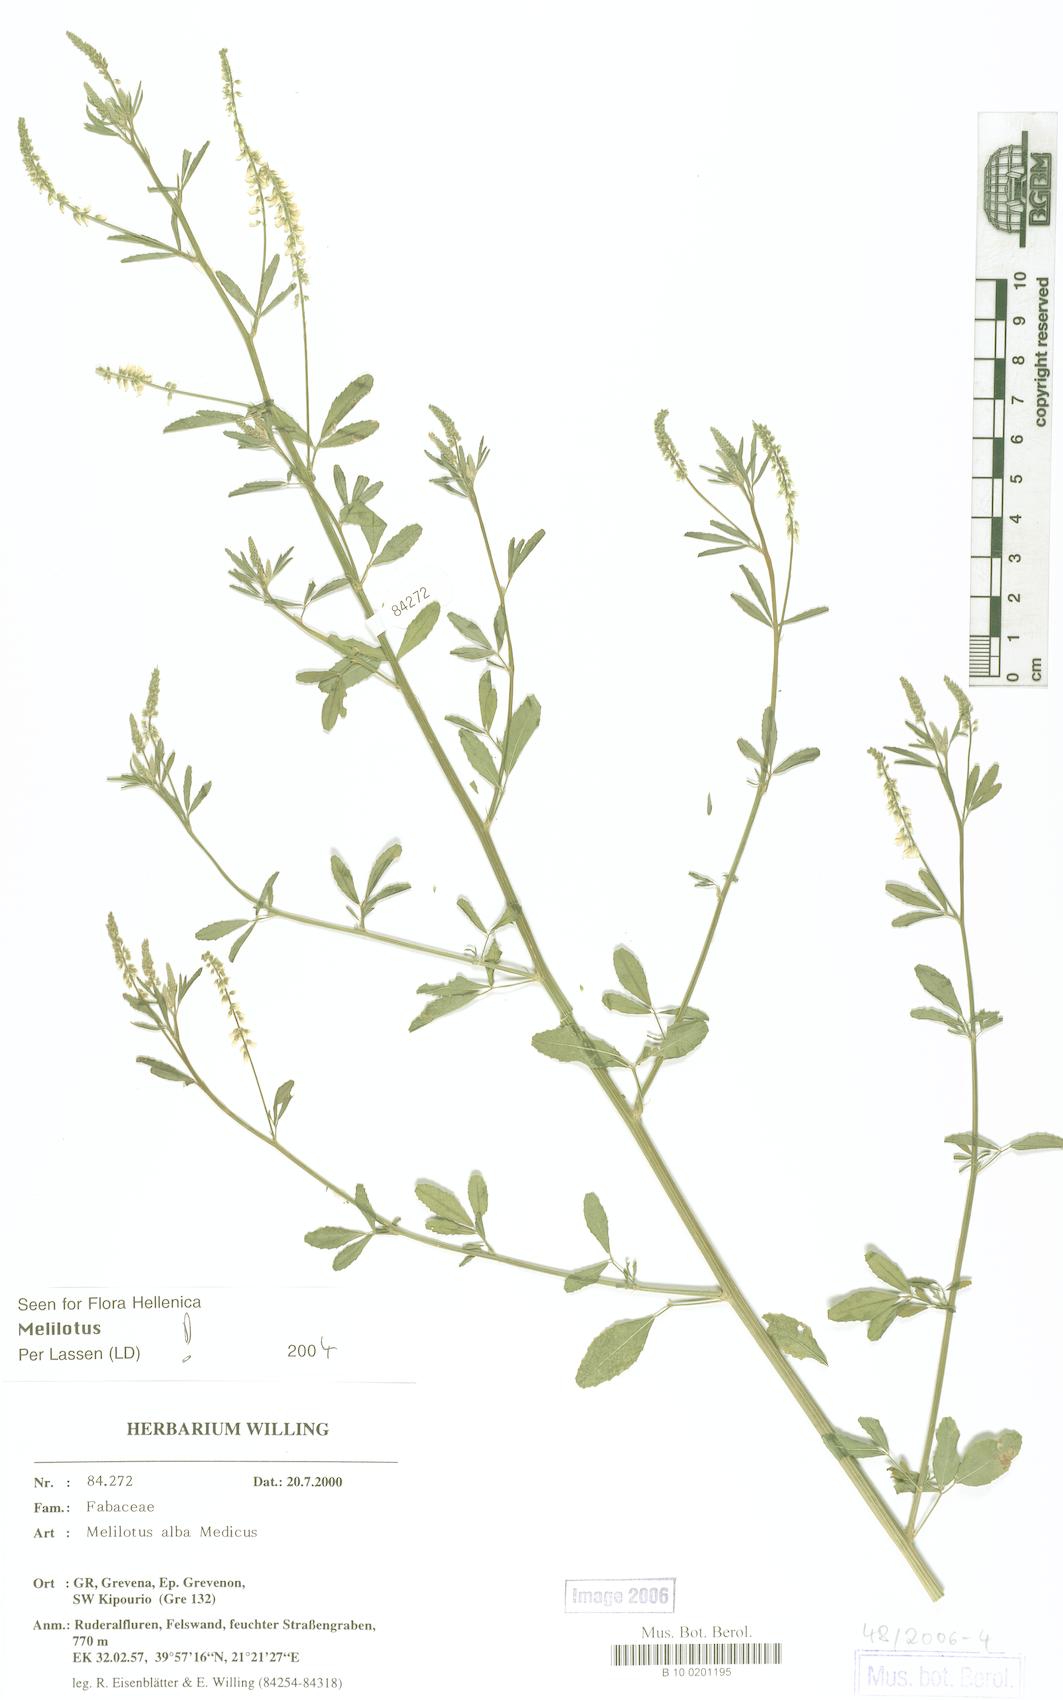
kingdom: Plantae
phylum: Tracheophyta
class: Magnoliopsida
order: Fabales
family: Fabaceae
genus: Melilotus
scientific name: Melilotus albus
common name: White melilot
